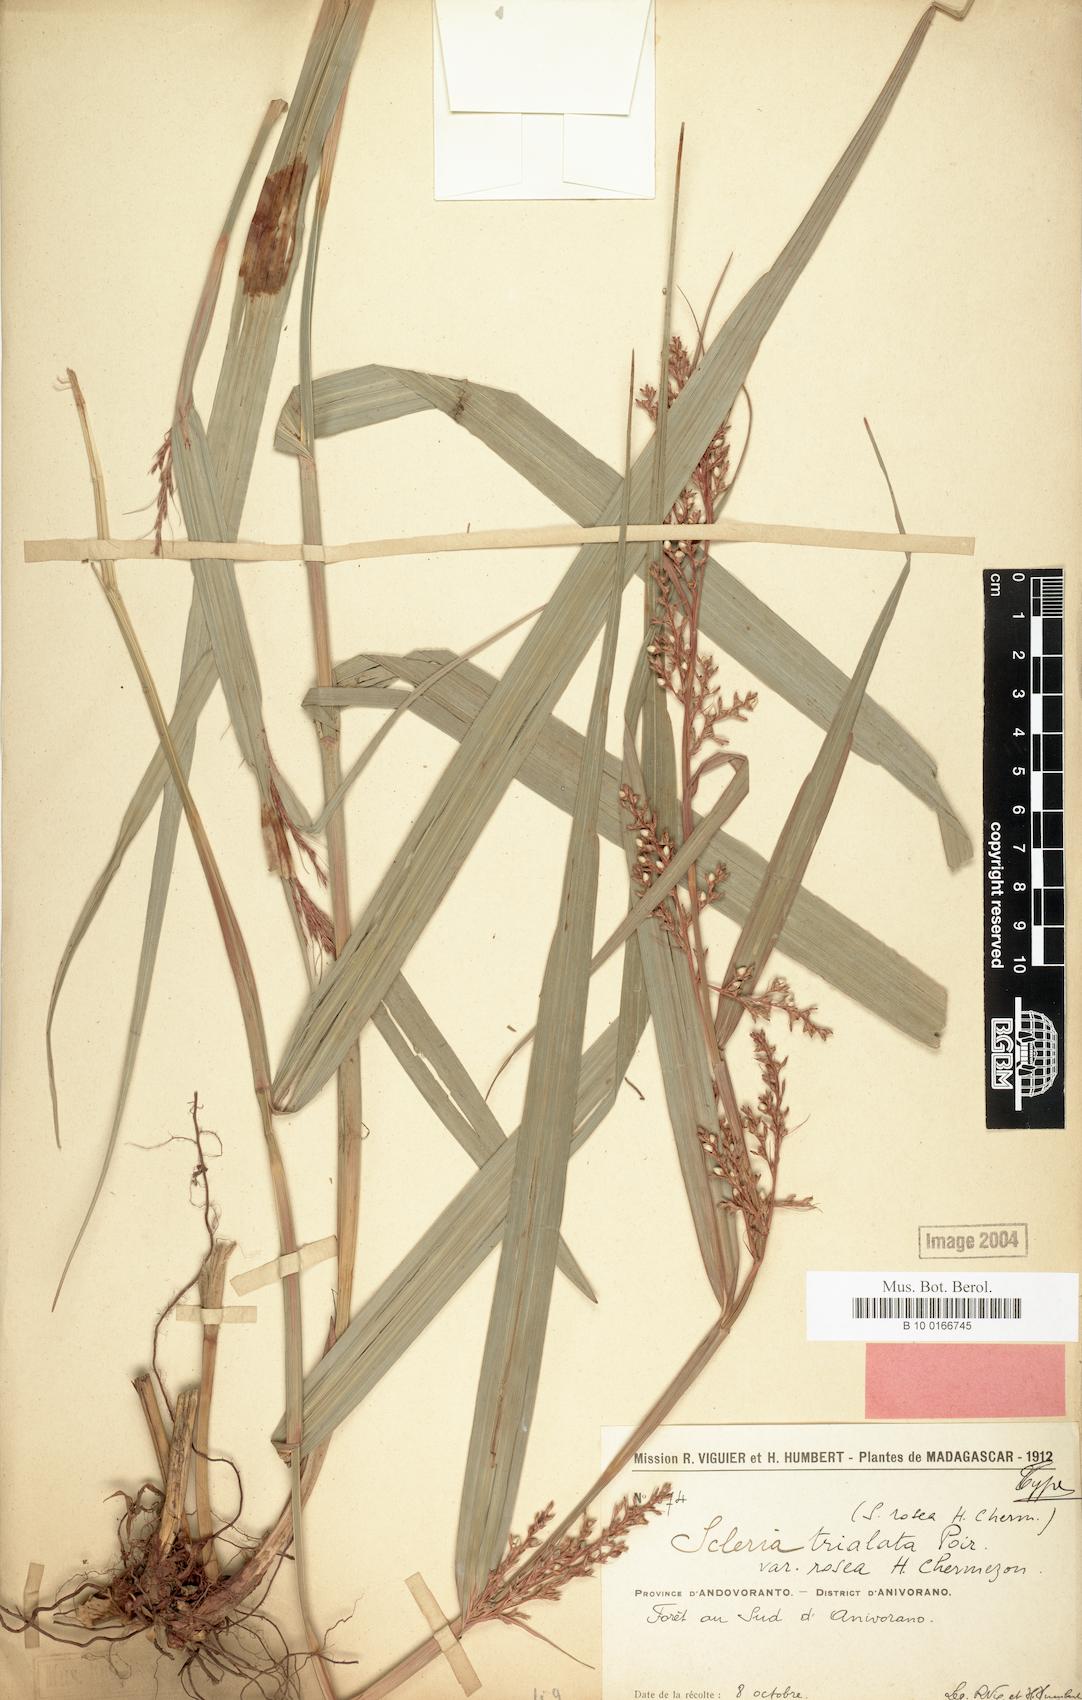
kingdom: Plantae
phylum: Tracheophyta
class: Liliopsida
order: Poales
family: Cyperaceae
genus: Scleria
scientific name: Scleria trialata
